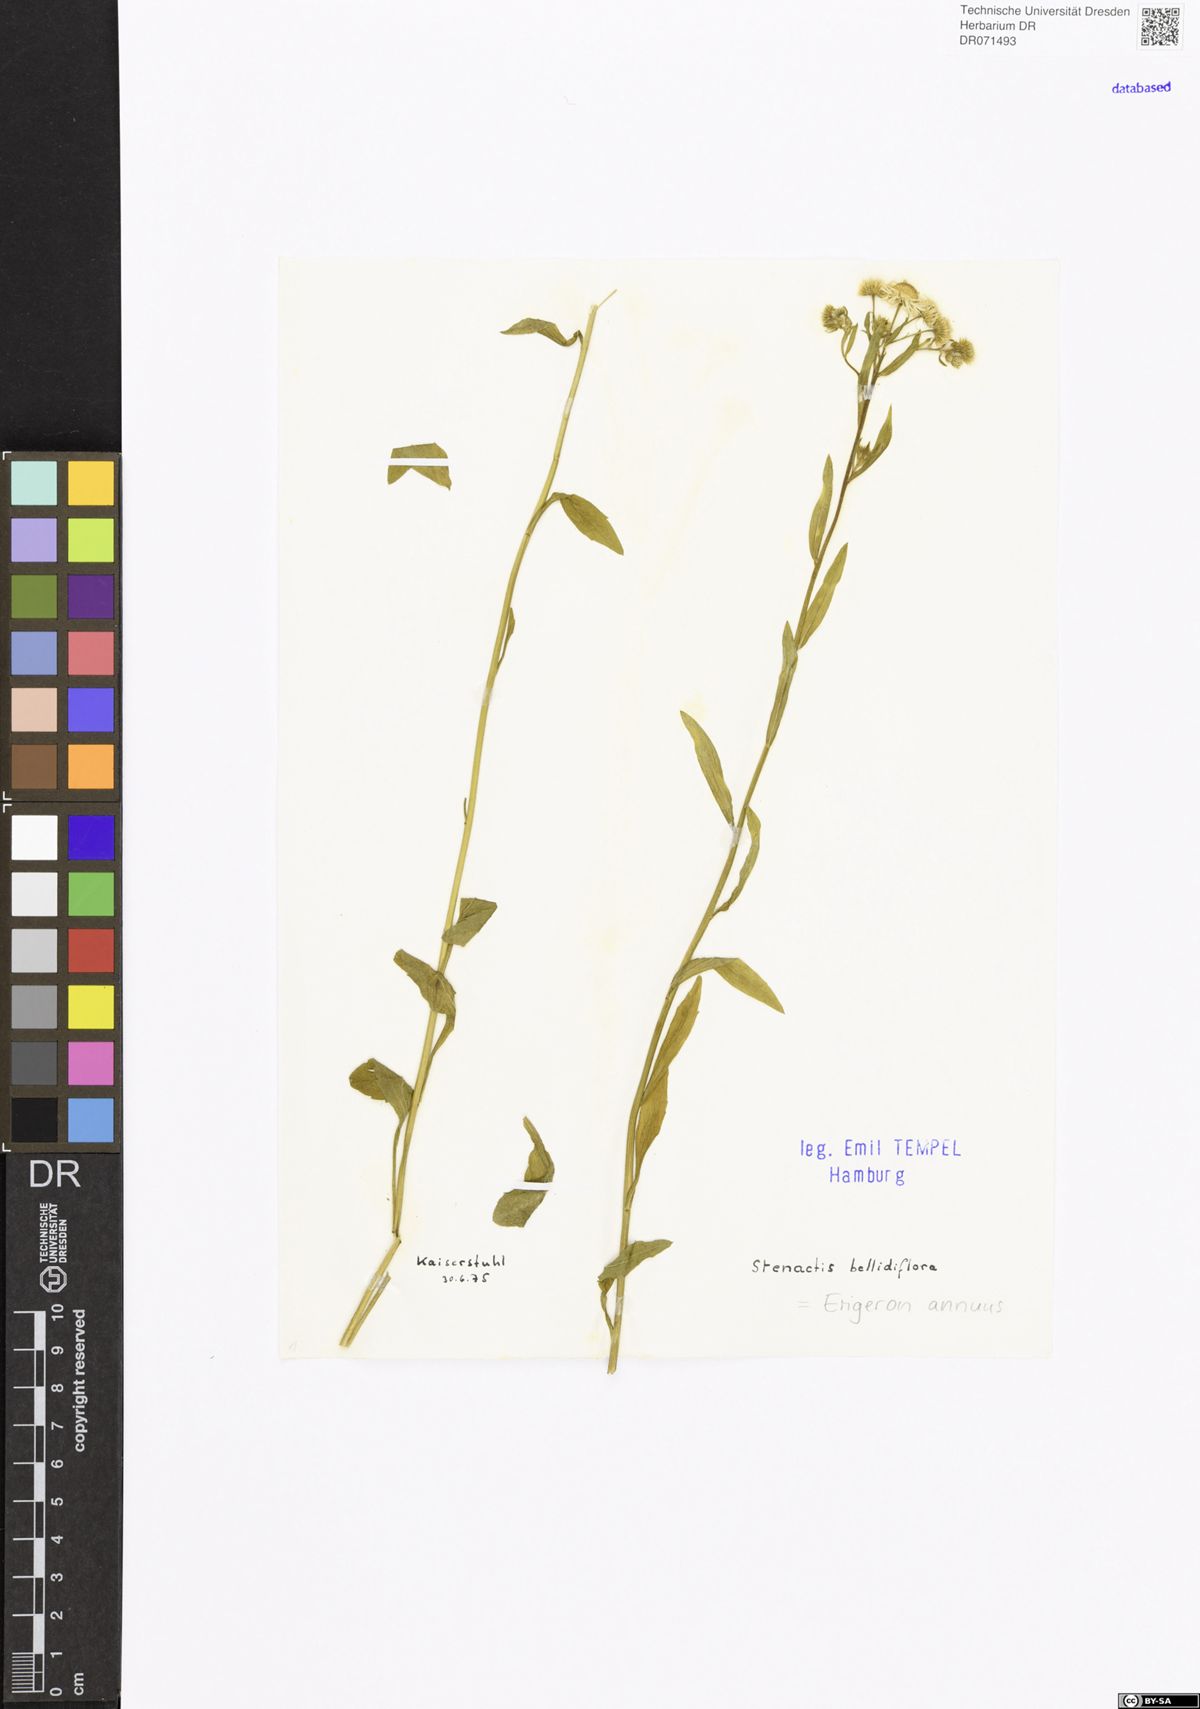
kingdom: Plantae
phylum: Tracheophyta
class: Magnoliopsida
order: Asterales
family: Asteraceae
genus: Erigeron
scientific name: Erigeron annuus
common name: Tall fleabane
